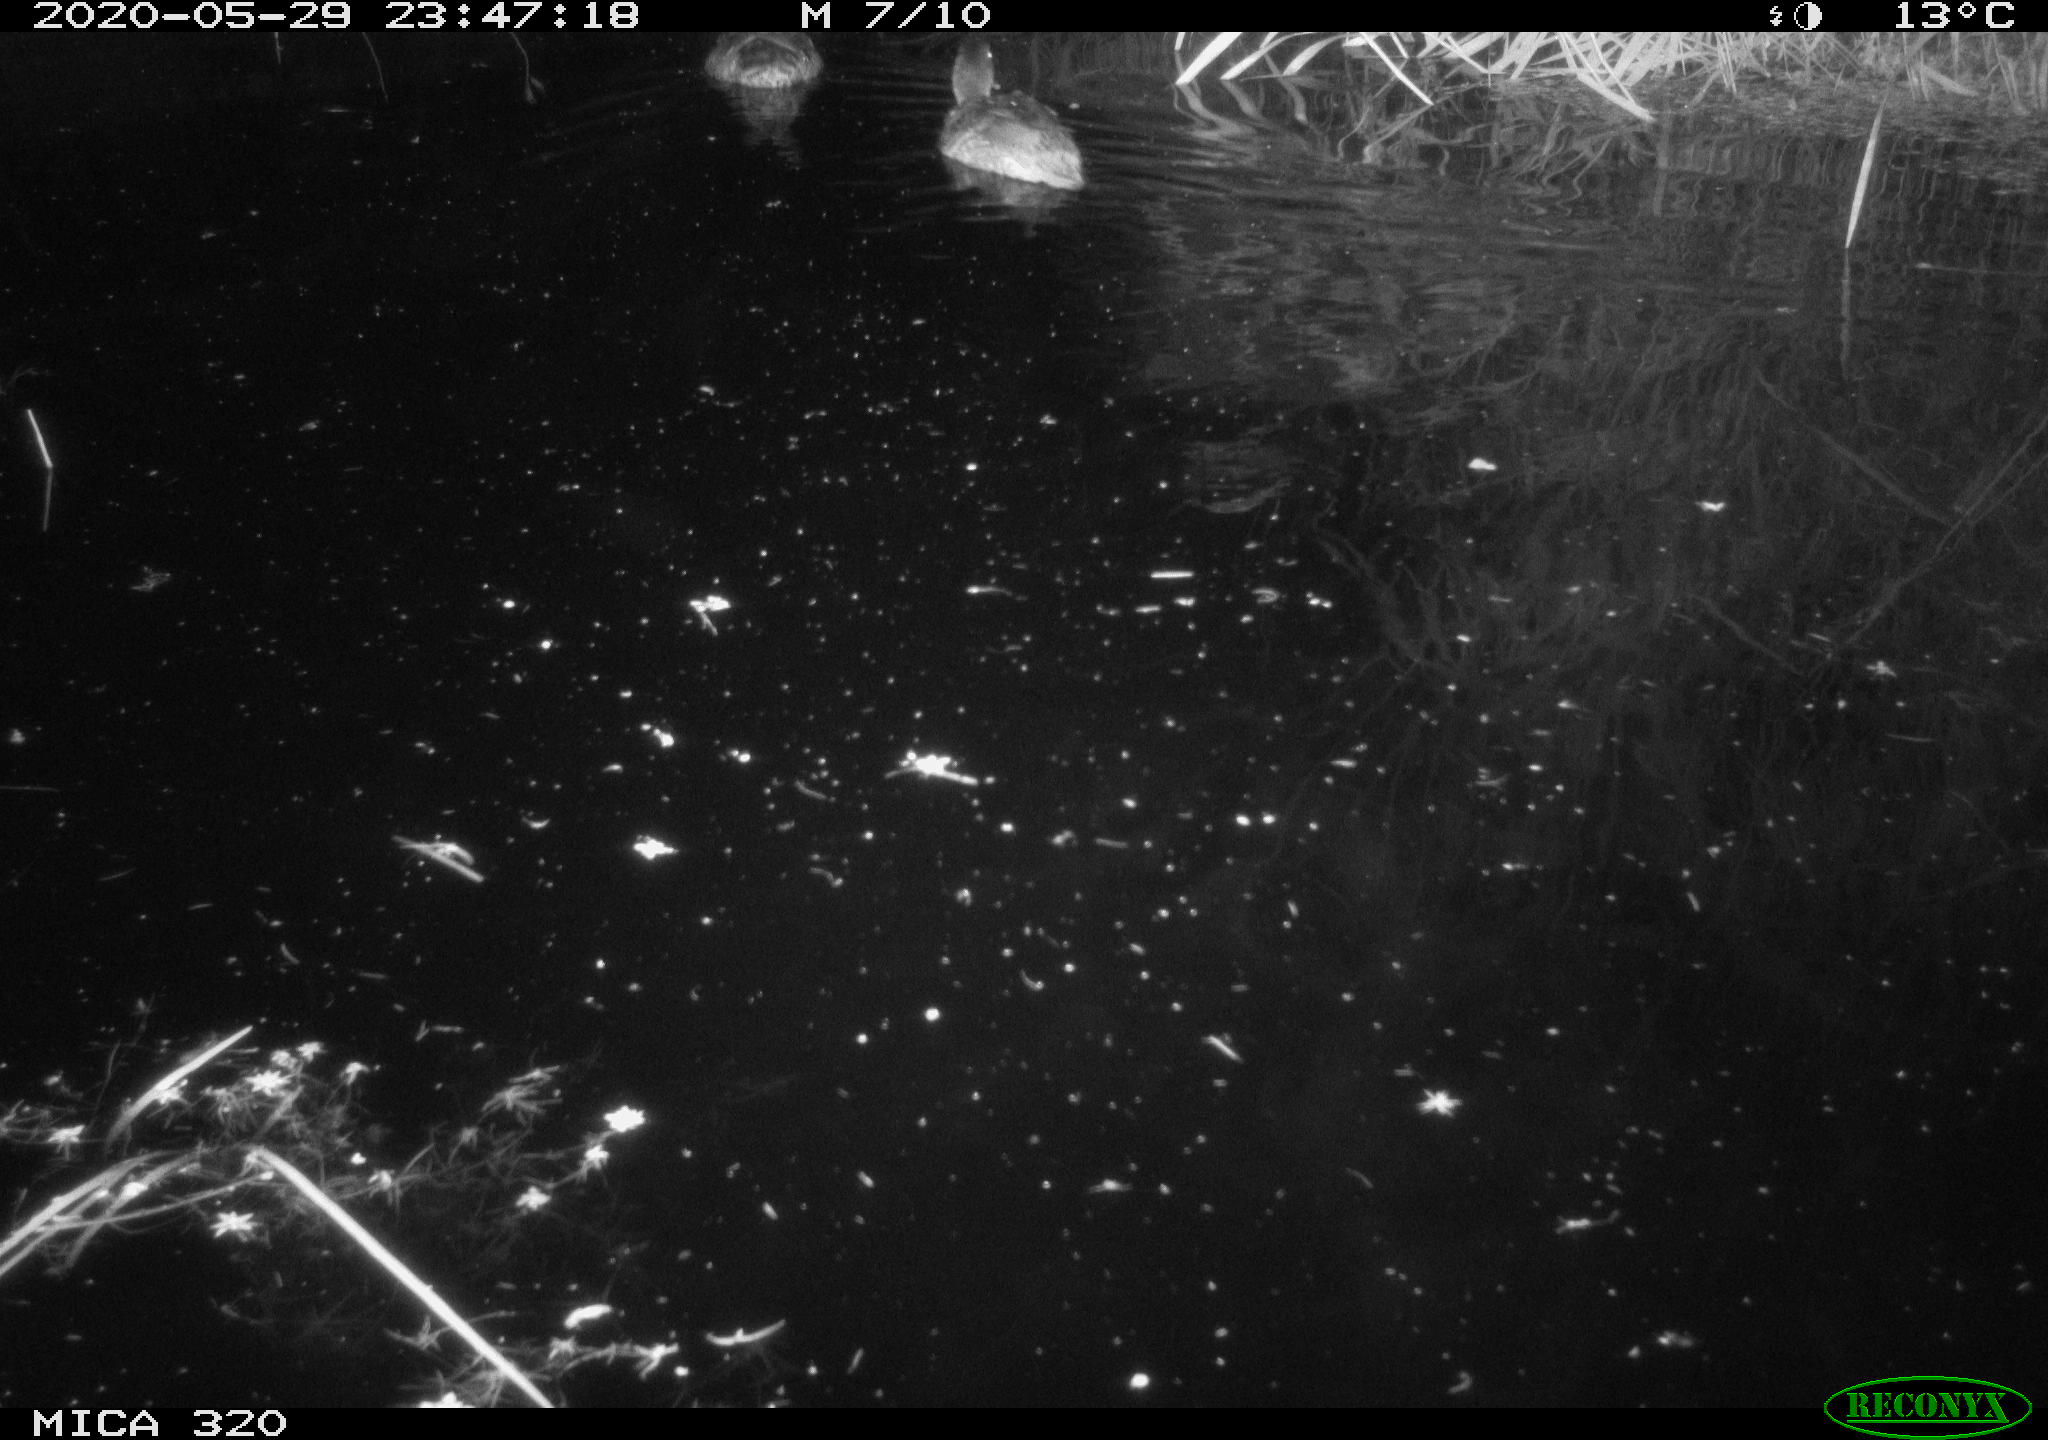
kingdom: Animalia
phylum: Chordata
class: Aves
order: Anseriformes
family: Anatidae
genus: Anas
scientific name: Anas platyrhynchos
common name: Mallard
